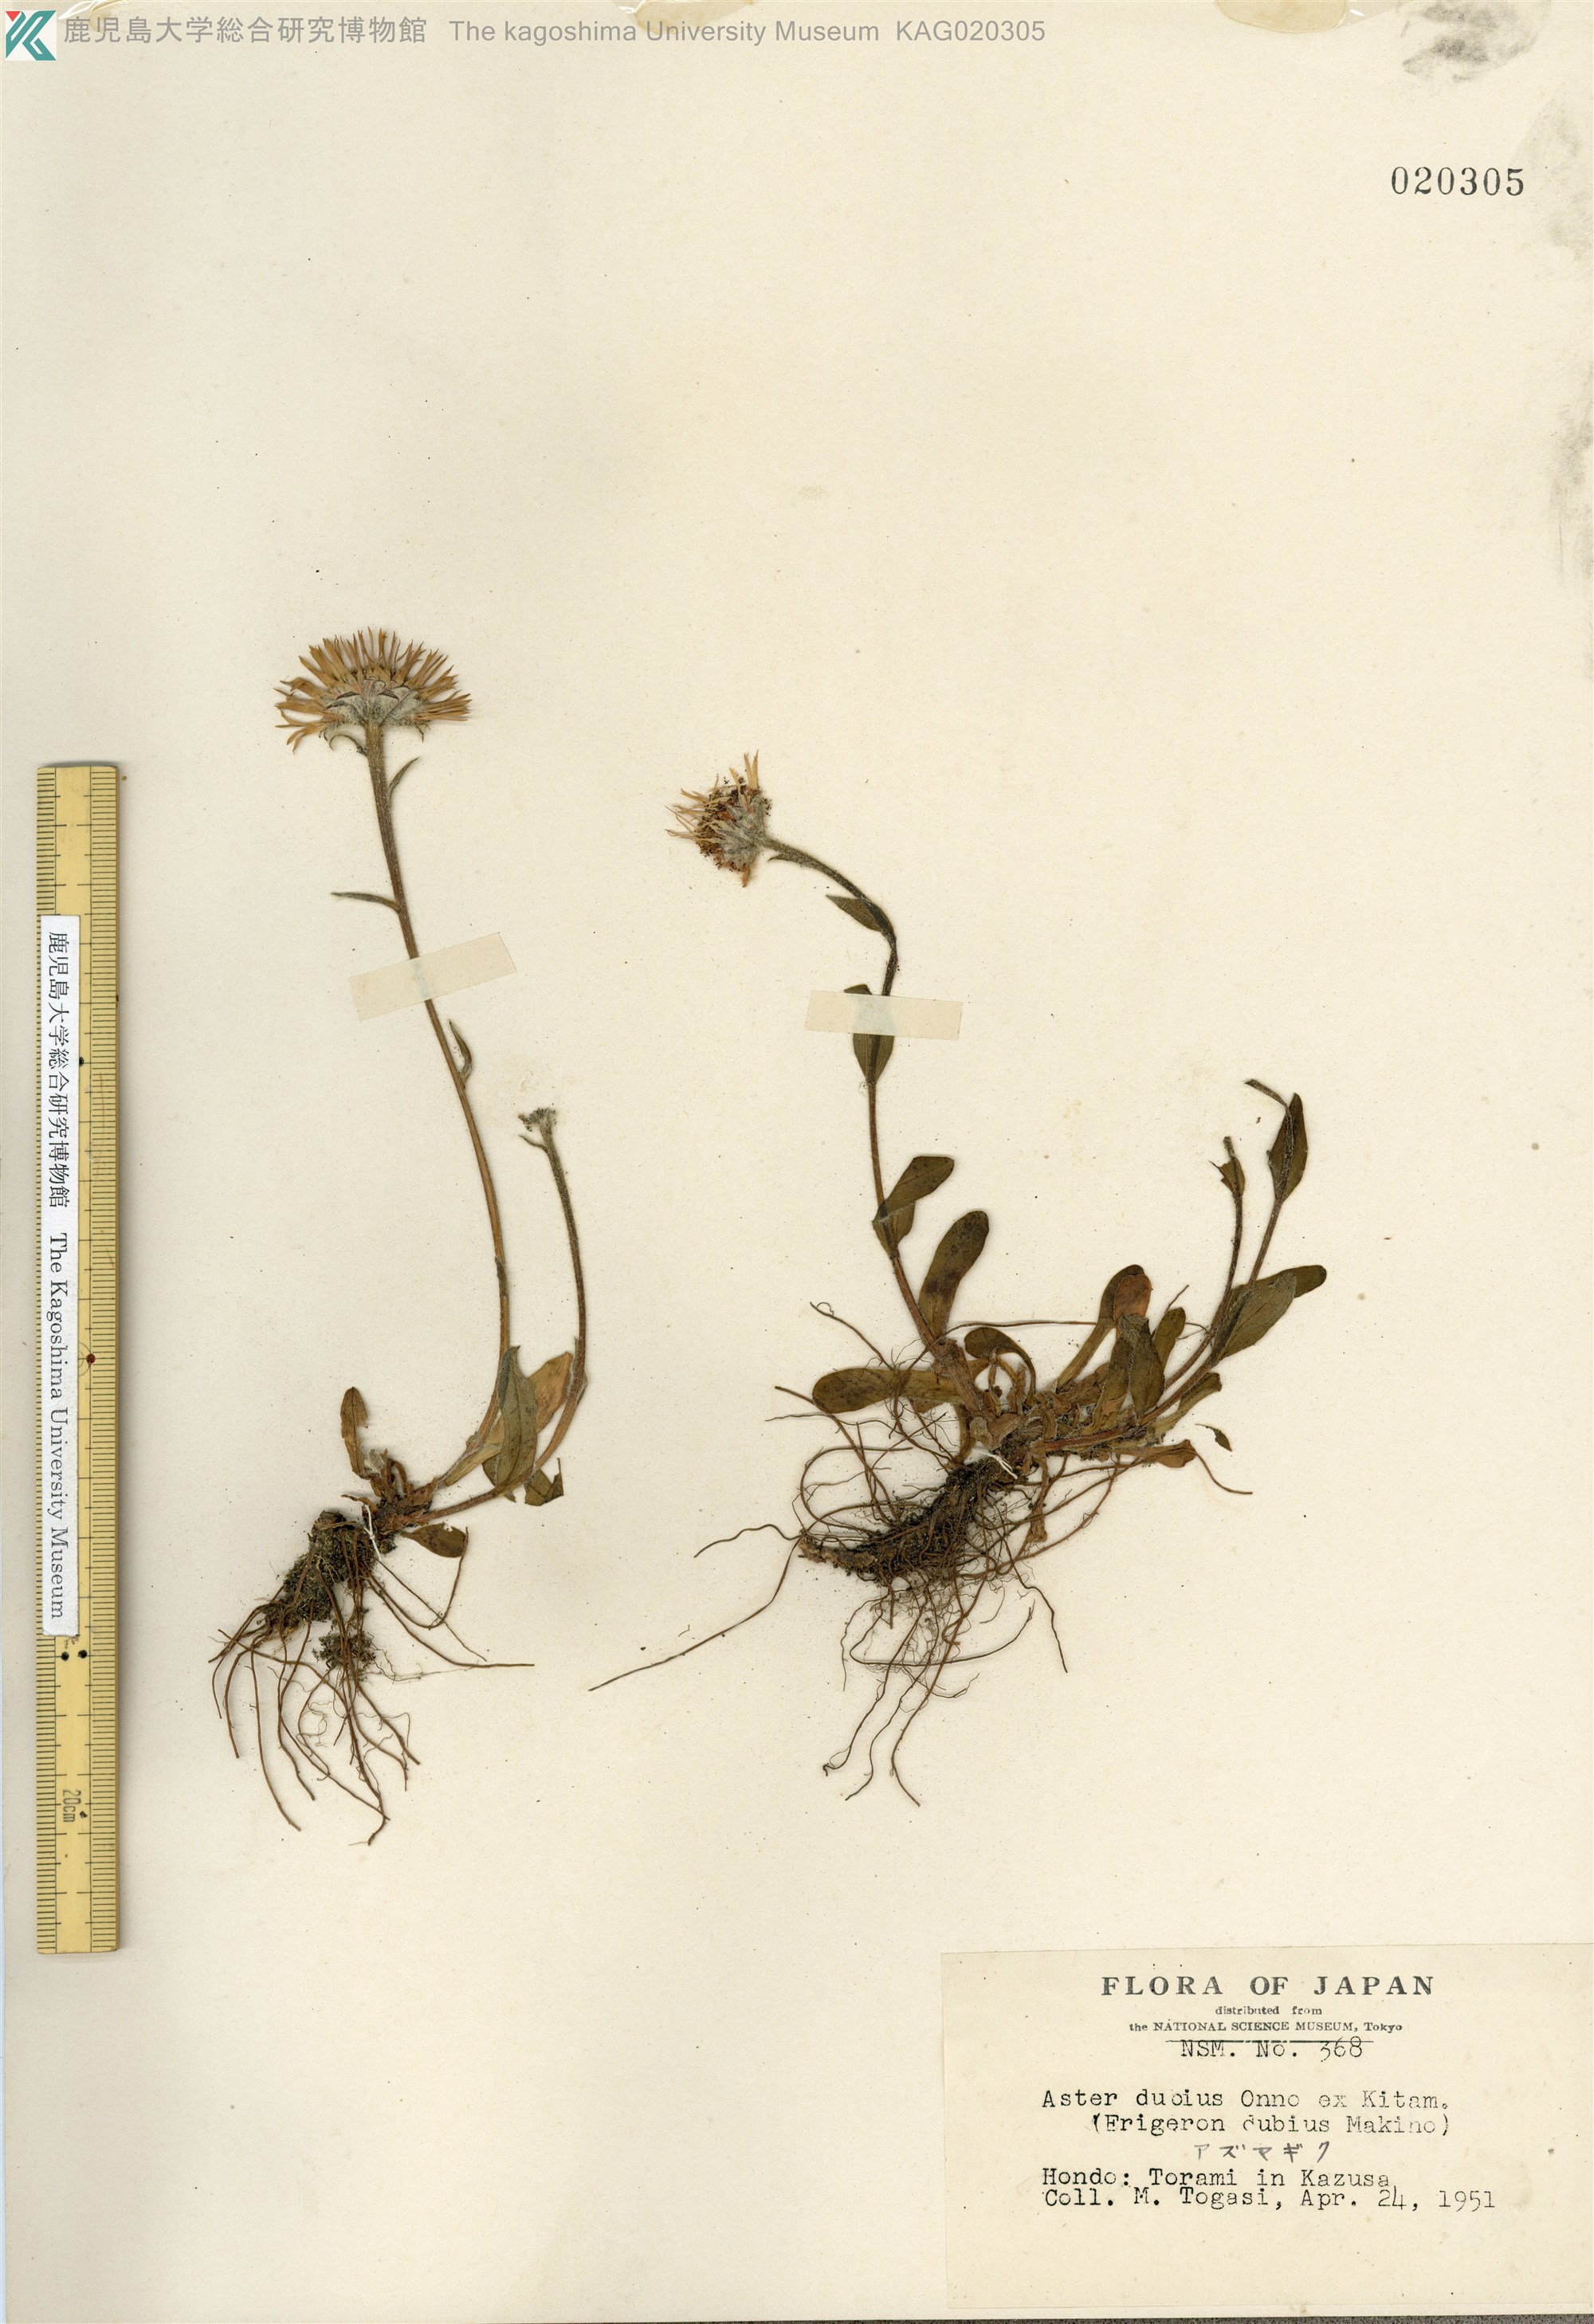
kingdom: Plantae
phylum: Tracheophyta
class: Magnoliopsida
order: Asterales
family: Asteraceae
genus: Erigeron
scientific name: Erigeron thunbergii
